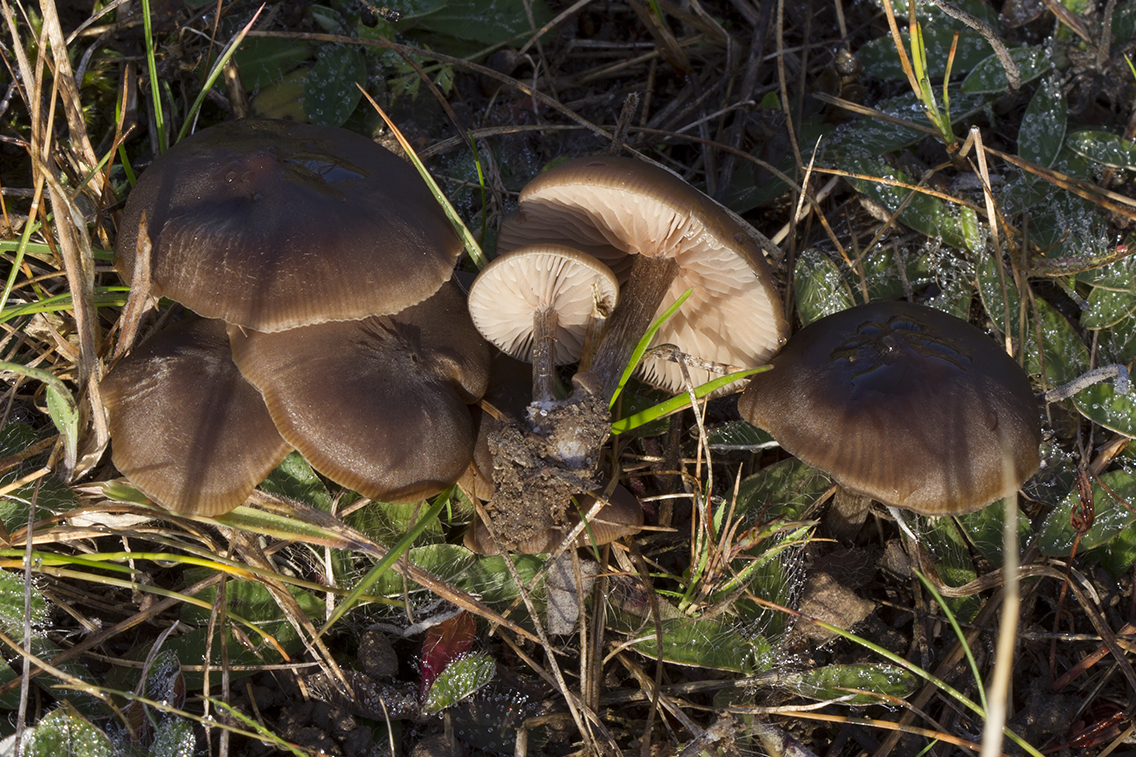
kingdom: Fungi
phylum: Basidiomycota
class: Agaricomycetes
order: Agaricales
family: Entolomataceae
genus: Entoloma
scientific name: Entoloma sericeum
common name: silkeglinsende rødblad
